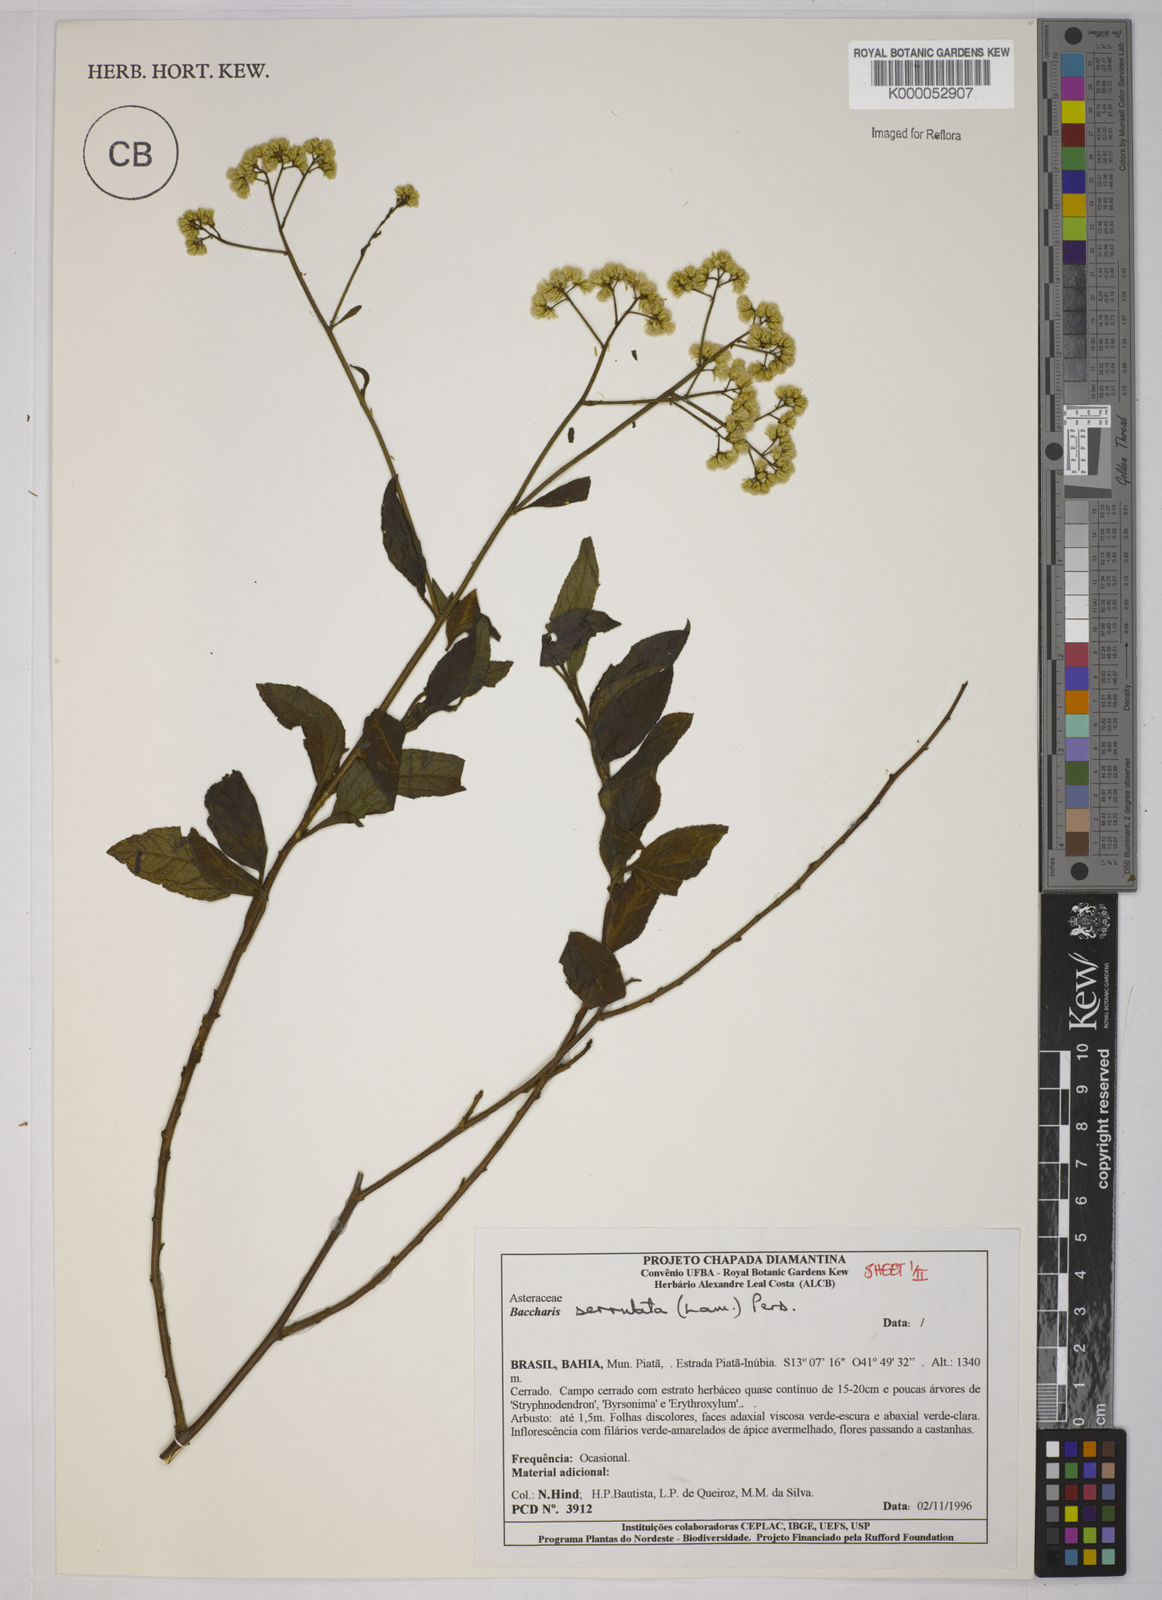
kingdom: Plantae
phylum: Tracheophyta
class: Magnoliopsida
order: Asterales
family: Asteraceae
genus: Baccharis
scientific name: Baccharis serrulata
